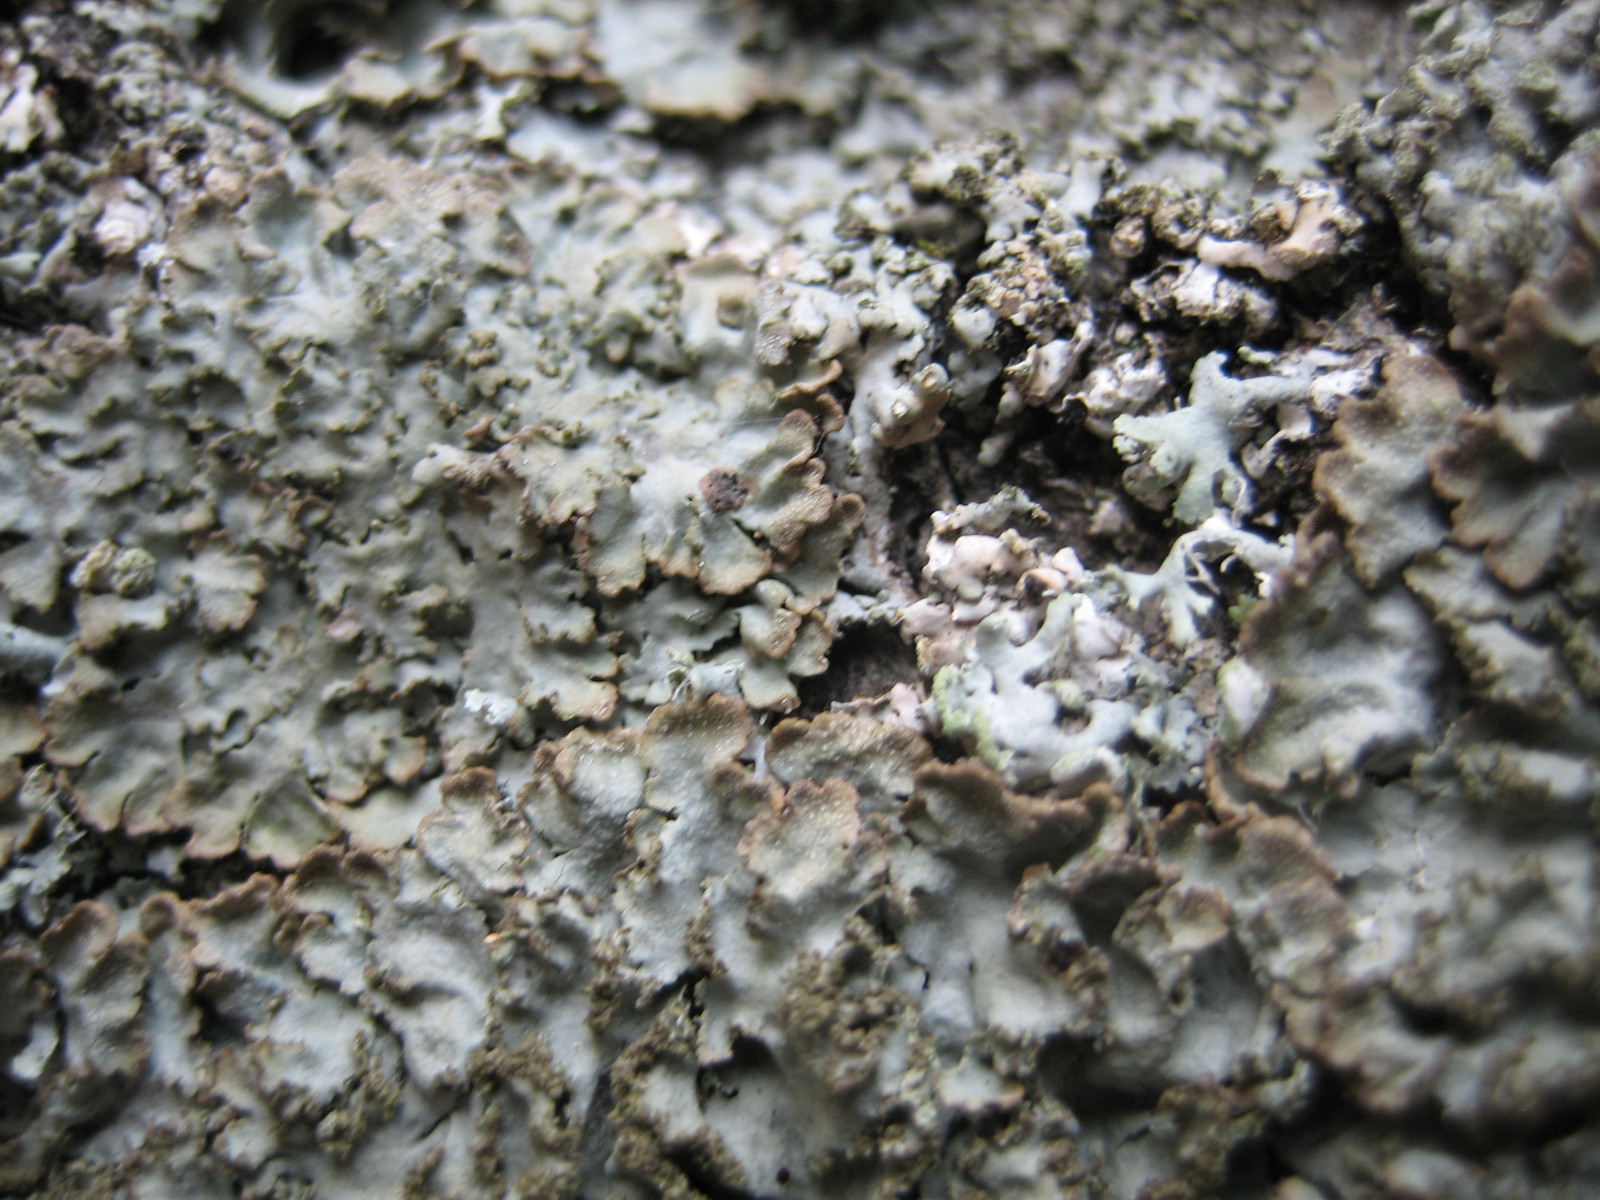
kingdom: Fungi
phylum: Ascomycota
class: Lecanoromycetes
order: Caliciales
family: Physciaceae
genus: Poeltonia
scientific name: Poeltonia grisea
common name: hvidgrå dugrosetlav
